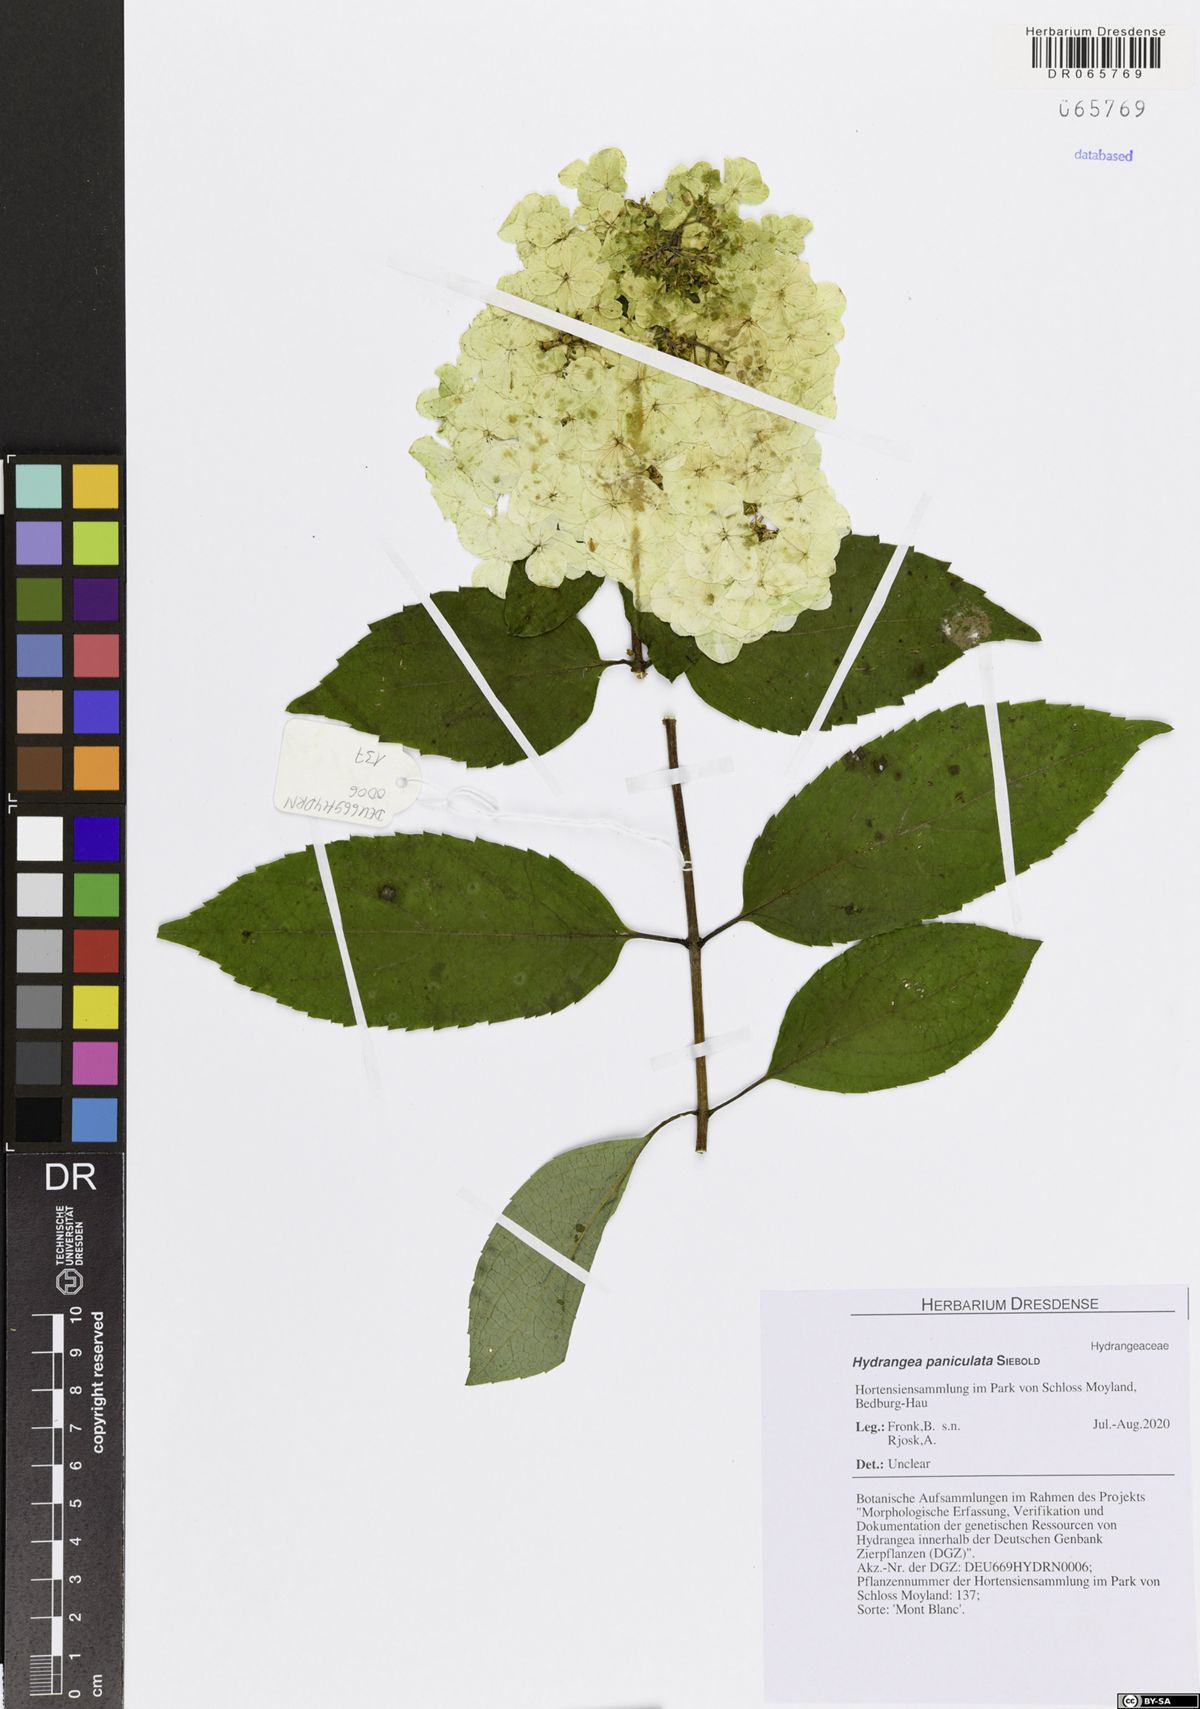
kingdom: Plantae
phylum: Tracheophyta
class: Magnoliopsida
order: Cornales
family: Hydrangeaceae
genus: Hydrangea
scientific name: Hydrangea paniculata
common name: Panicled hydrangea
